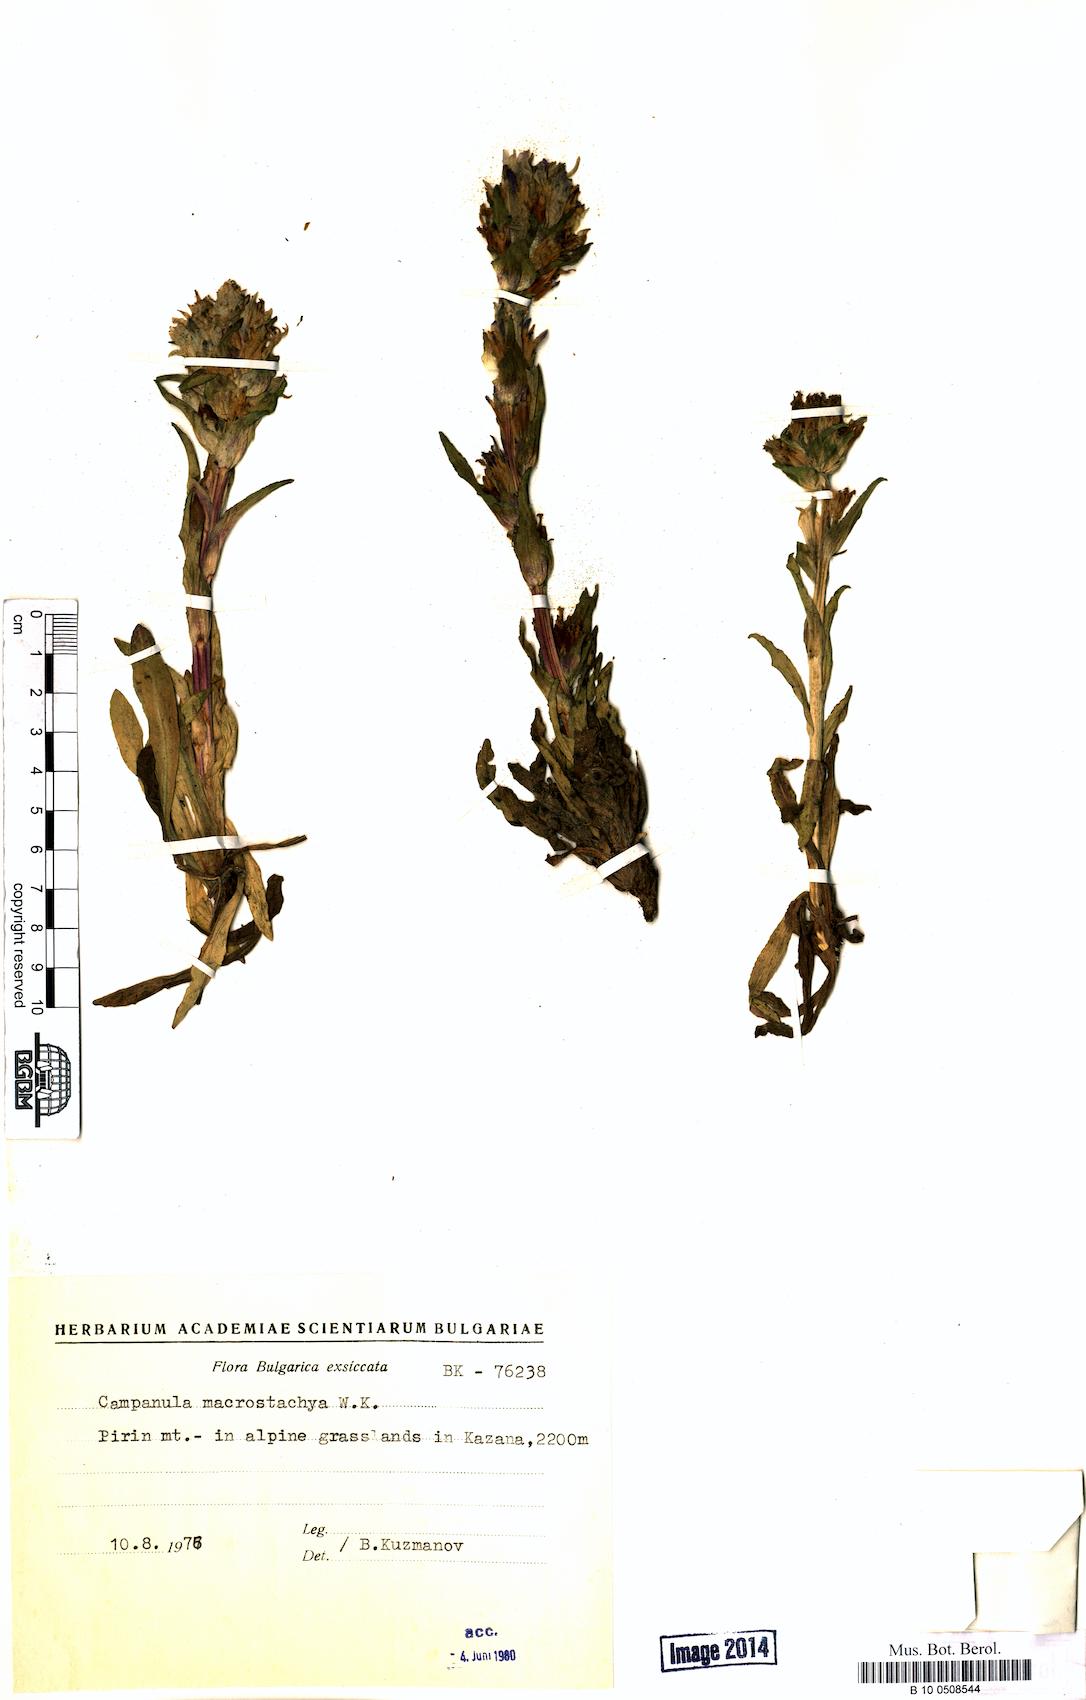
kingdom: Plantae
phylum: Tracheophyta
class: Magnoliopsida
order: Asterales
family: Campanulaceae
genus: Campanula
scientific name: Campanula macrostachya
